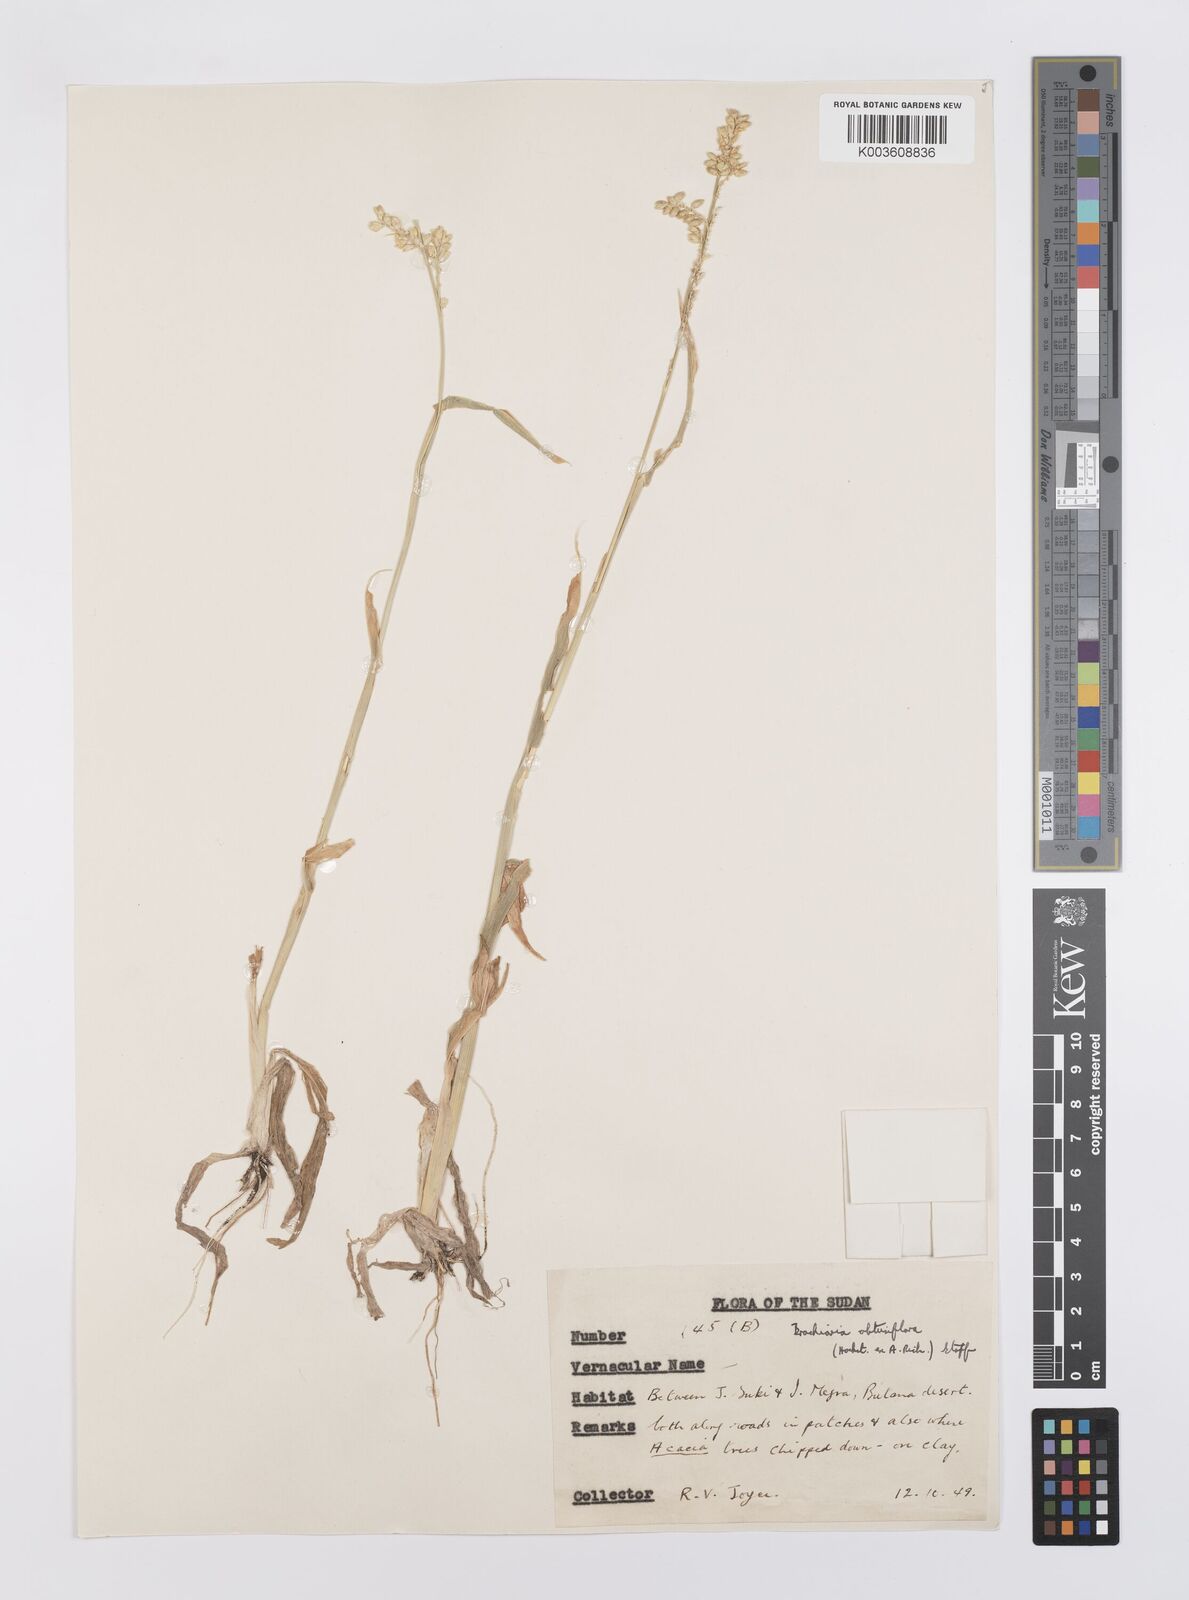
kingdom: Plantae
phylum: Tracheophyta
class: Liliopsida
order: Poales
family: Poaceae
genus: Echinochloa
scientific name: Echinochloa rotundiflora
